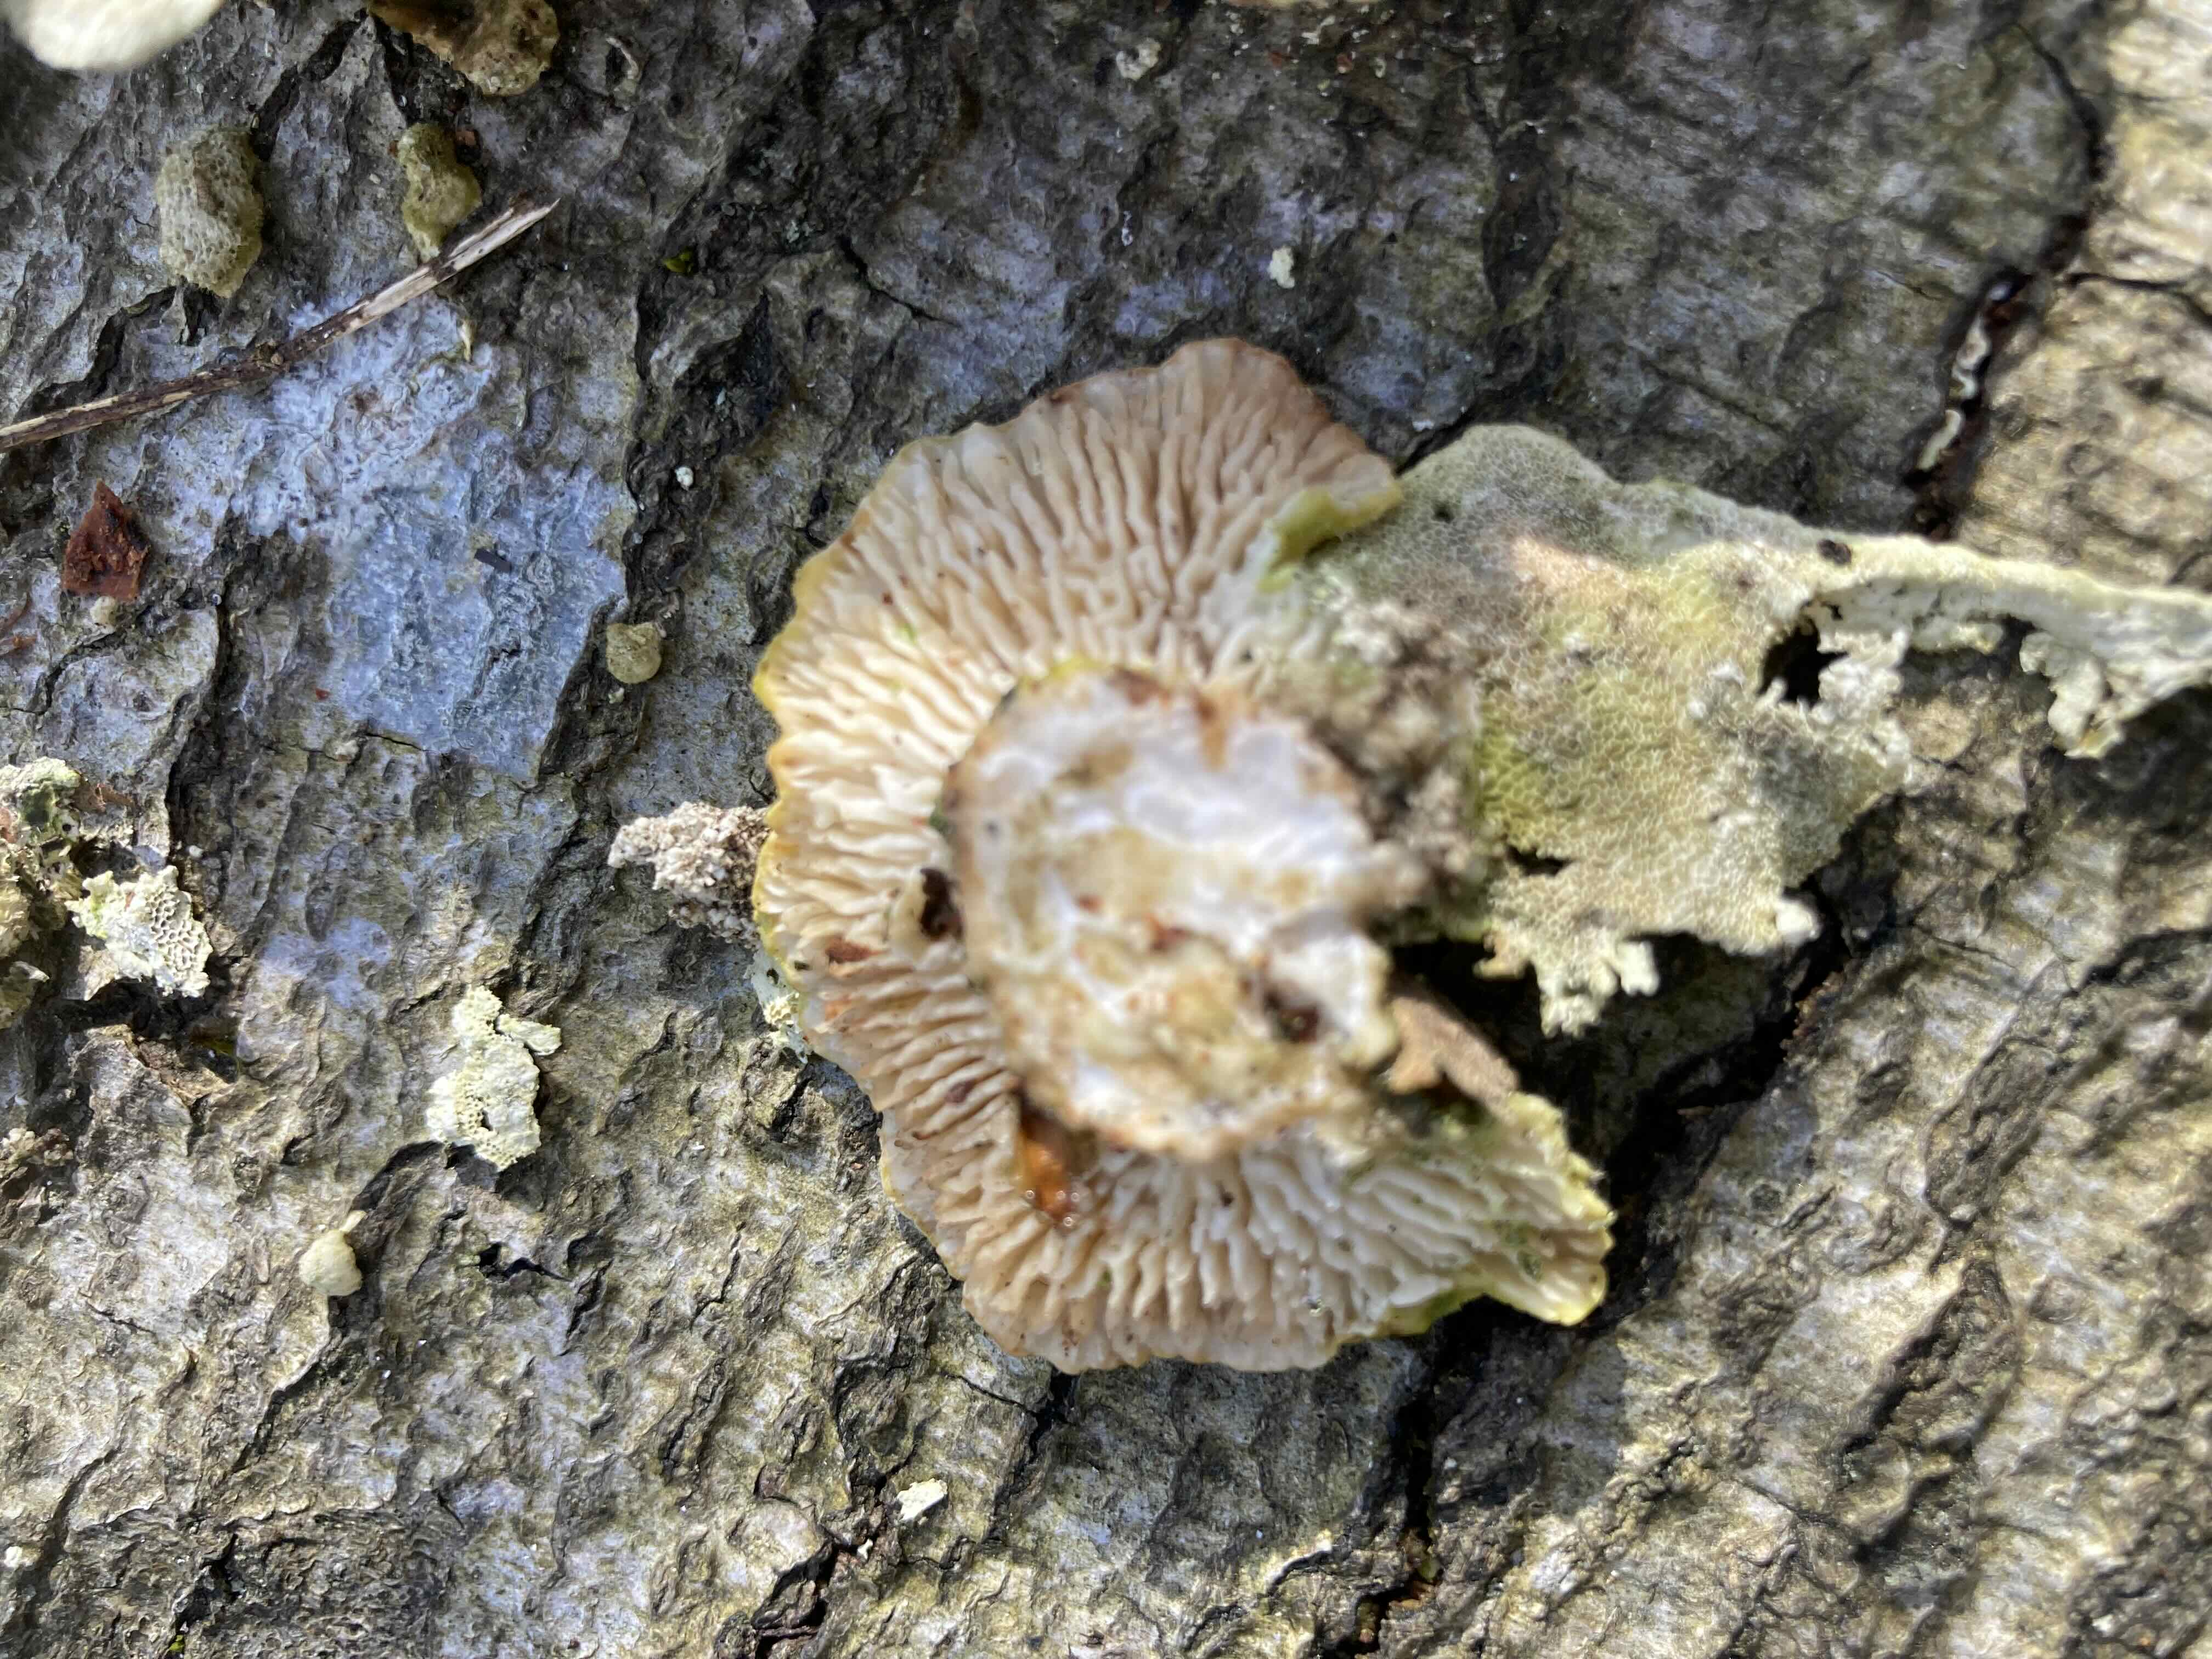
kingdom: Fungi
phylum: Basidiomycota
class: Agaricomycetes
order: Polyporales
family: Polyporaceae
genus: Lenzites
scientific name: Lenzites betulinus
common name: birke-læderporesvamp
